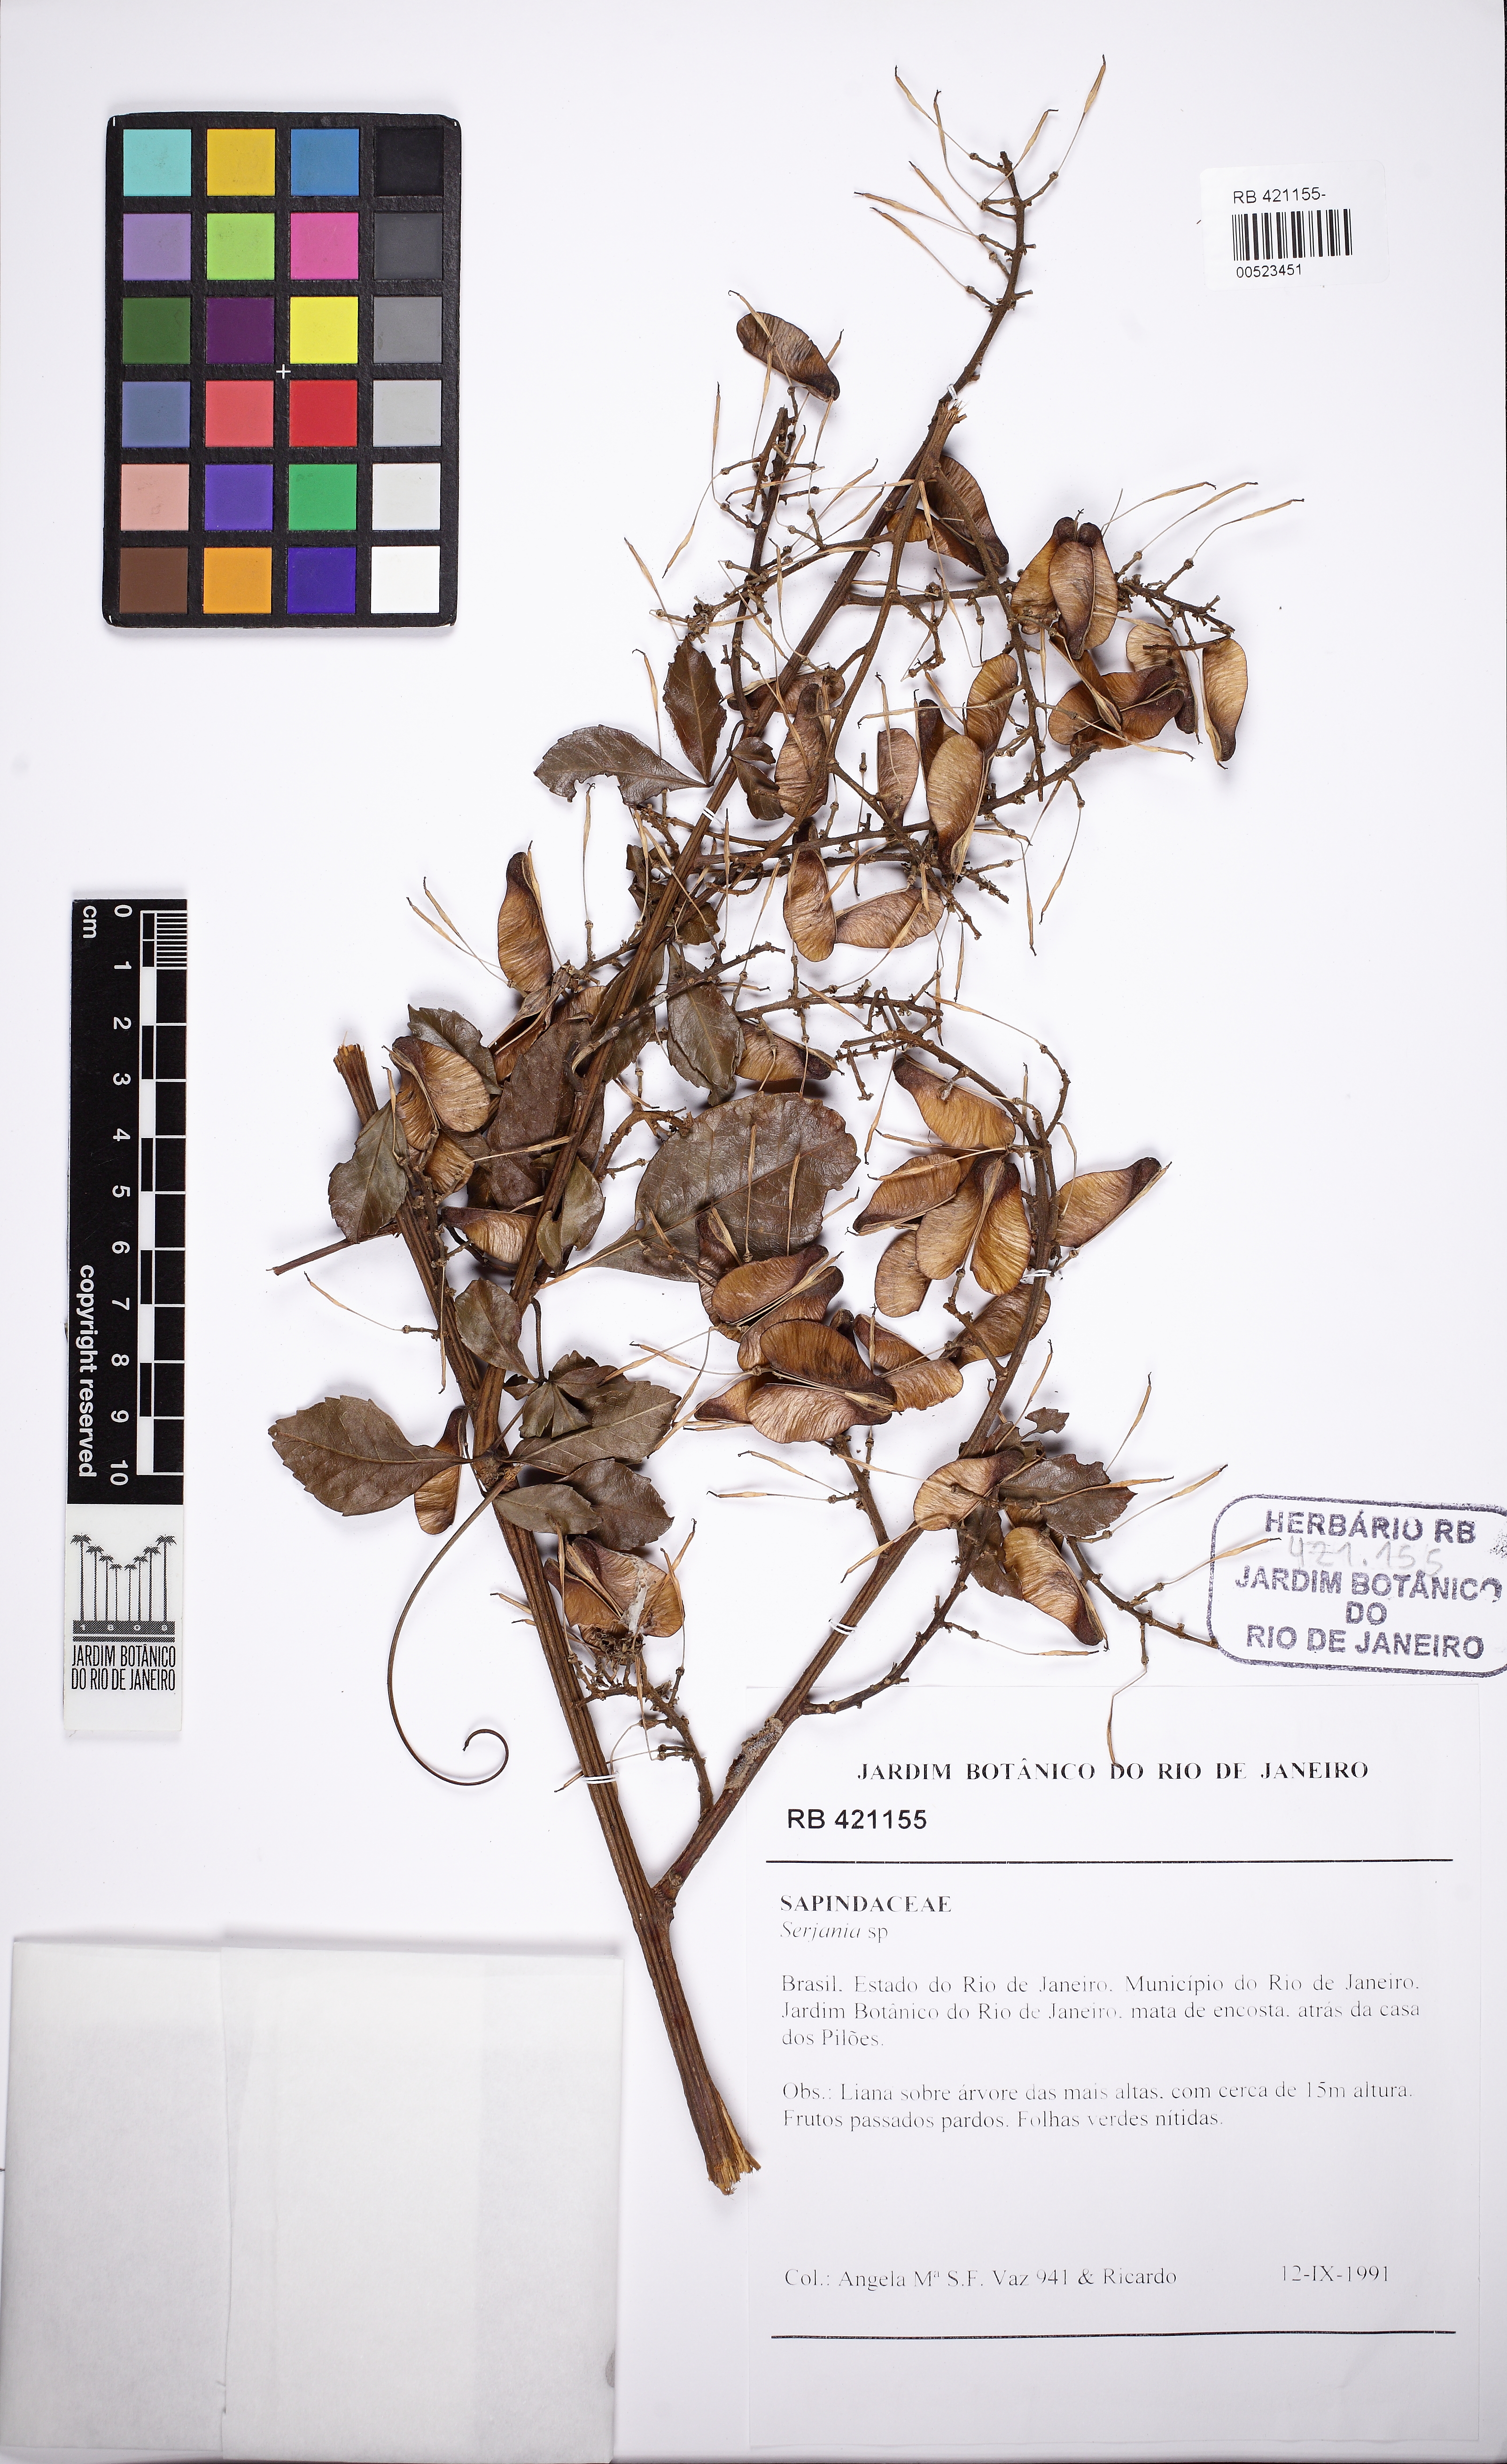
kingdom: Plantae
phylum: Tracheophyta
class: Magnoliopsida
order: Sapindales
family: Sapindaceae
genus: Serjania
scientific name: Serjania multiflora
